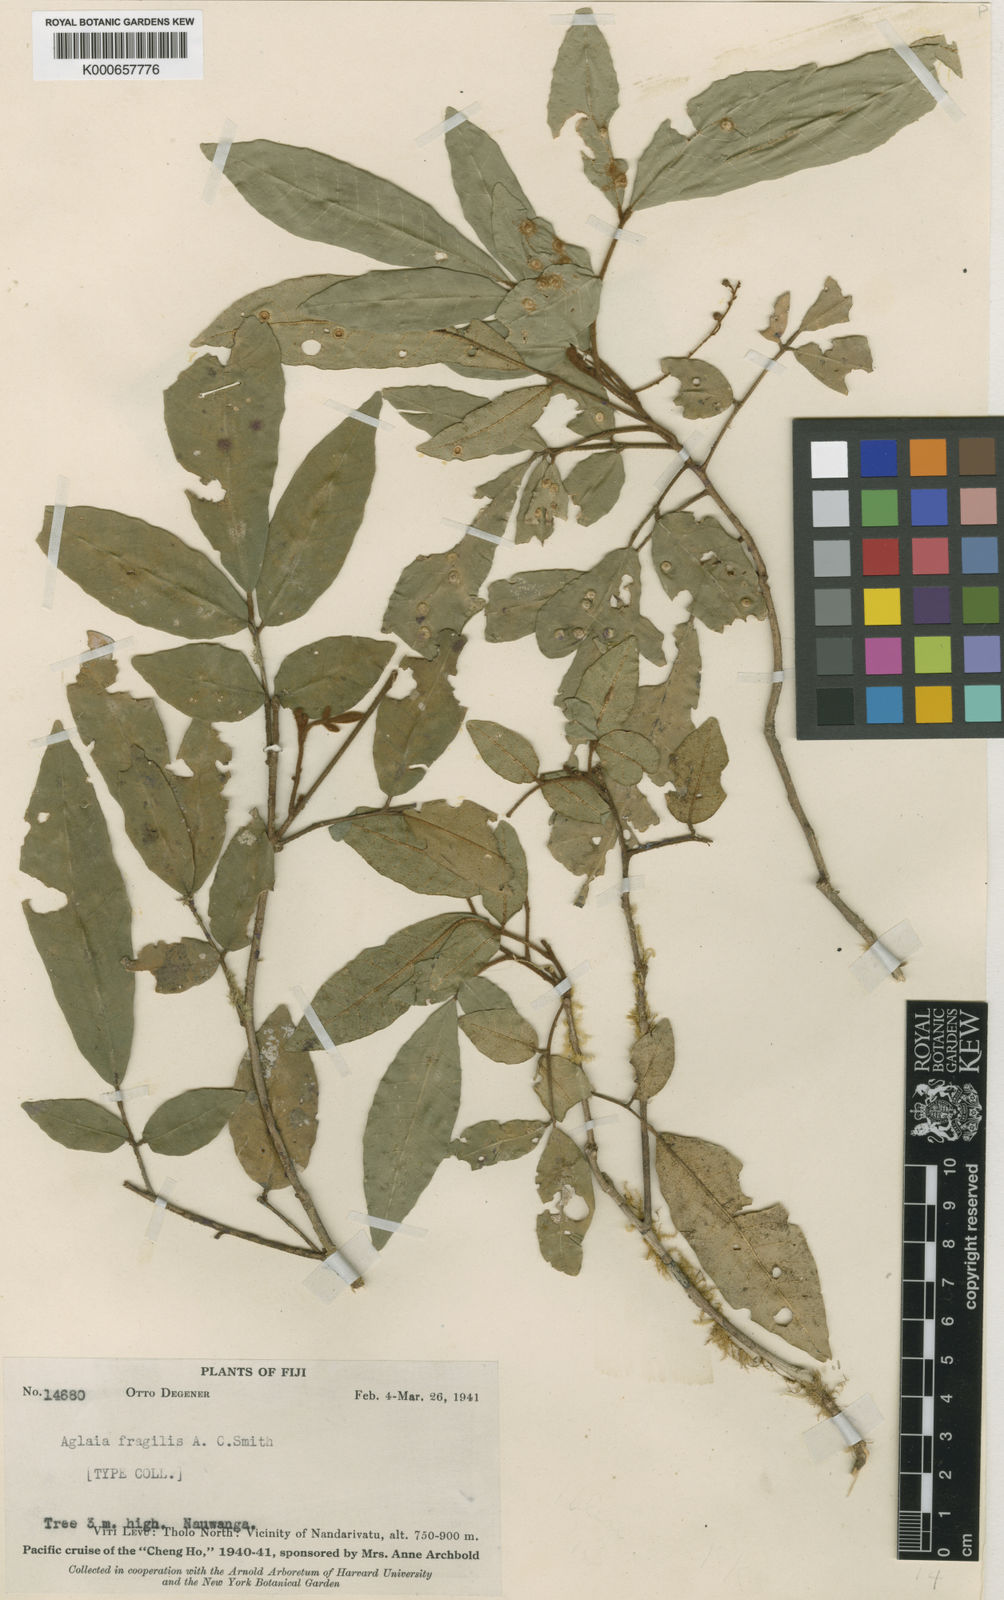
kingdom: Plantae
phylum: Tracheophyta
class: Magnoliopsida
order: Sapindales
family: Meliaceae
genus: Aglaia
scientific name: Aglaia fragilis
